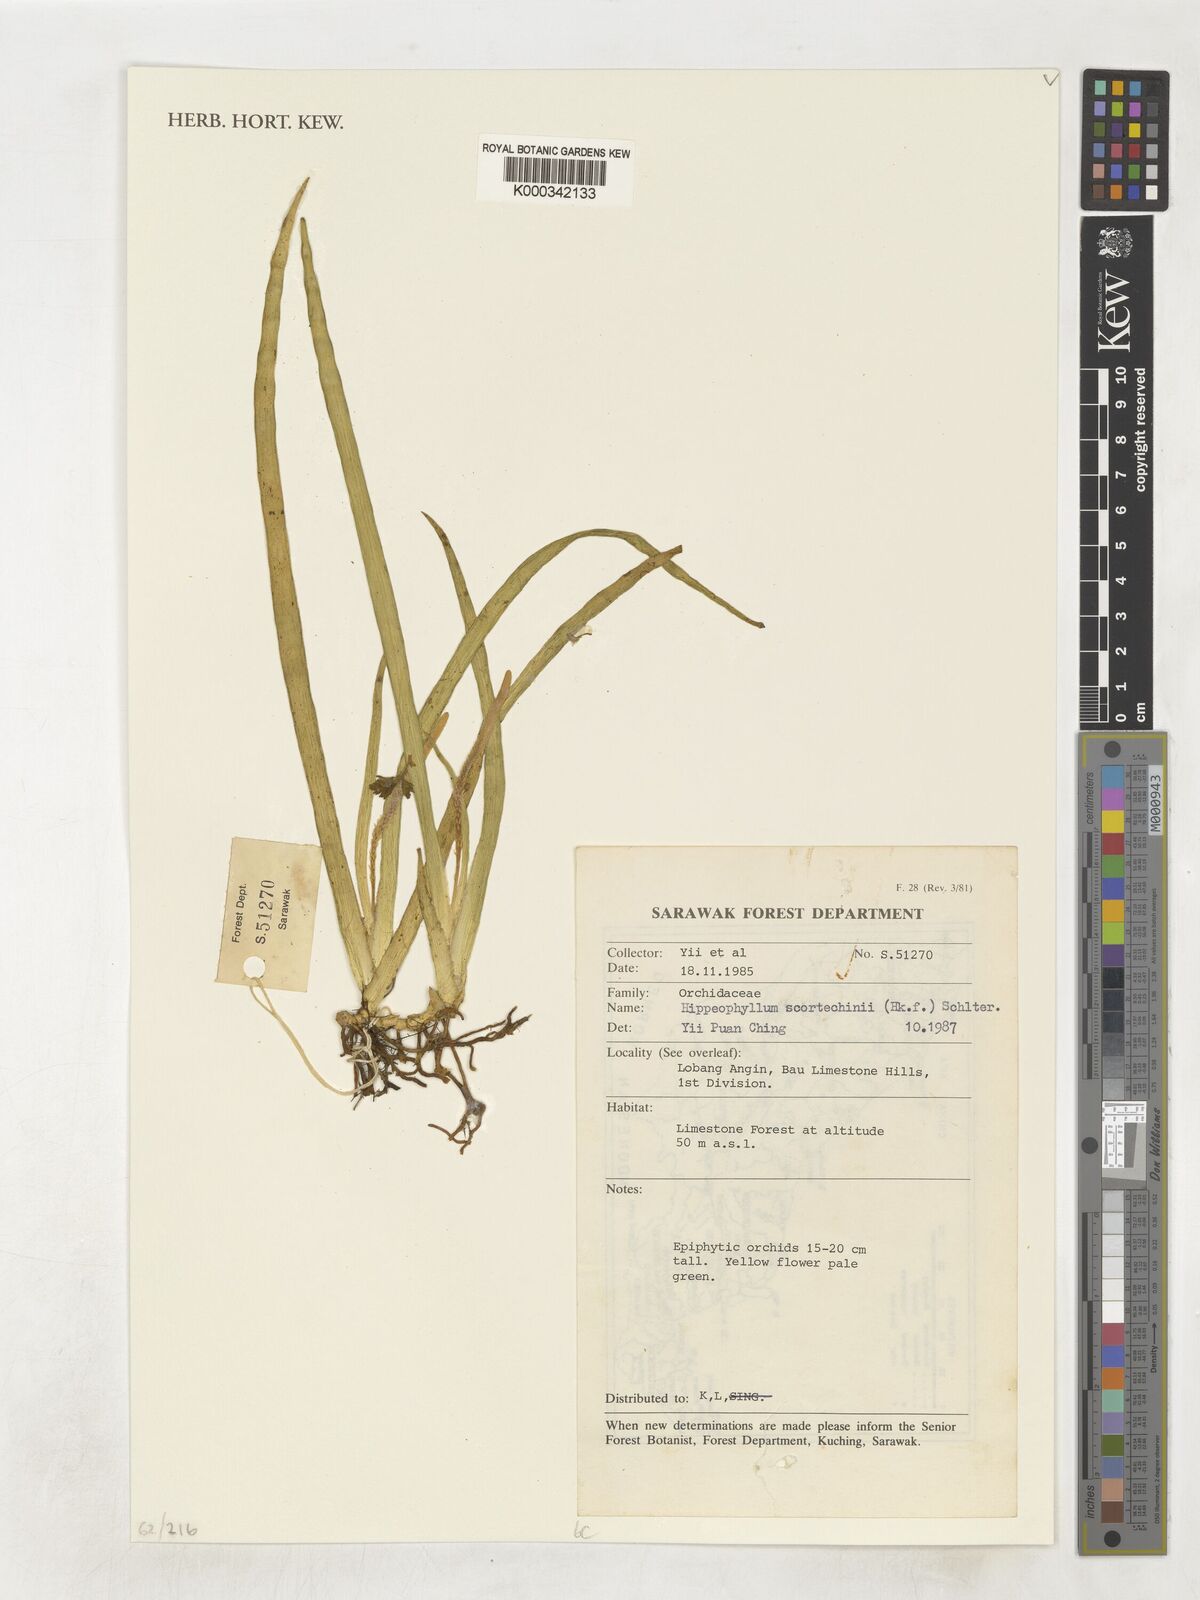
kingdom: Plantae
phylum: Tracheophyta
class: Liliopsida
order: Asparagales
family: Orchidaceae
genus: Hippeophyllum
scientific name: Hippeophyllum scortechinii
